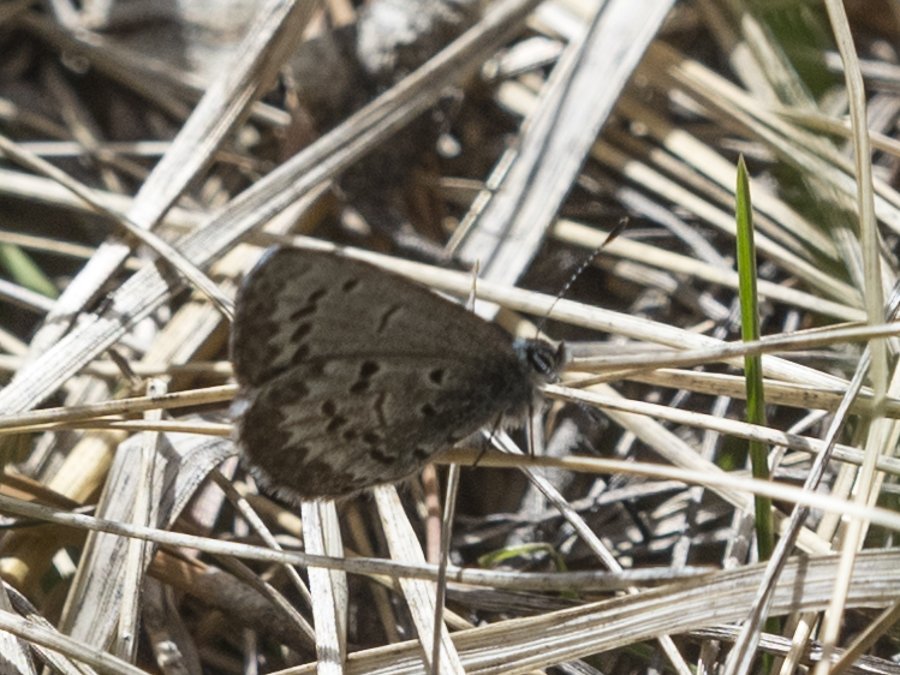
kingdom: Animalia
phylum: Arthropoda
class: Insecta
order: Lepidoptera
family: Lycaenidae
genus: Celastrina
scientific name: Celastrina lucia
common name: Northern Spring Azure
